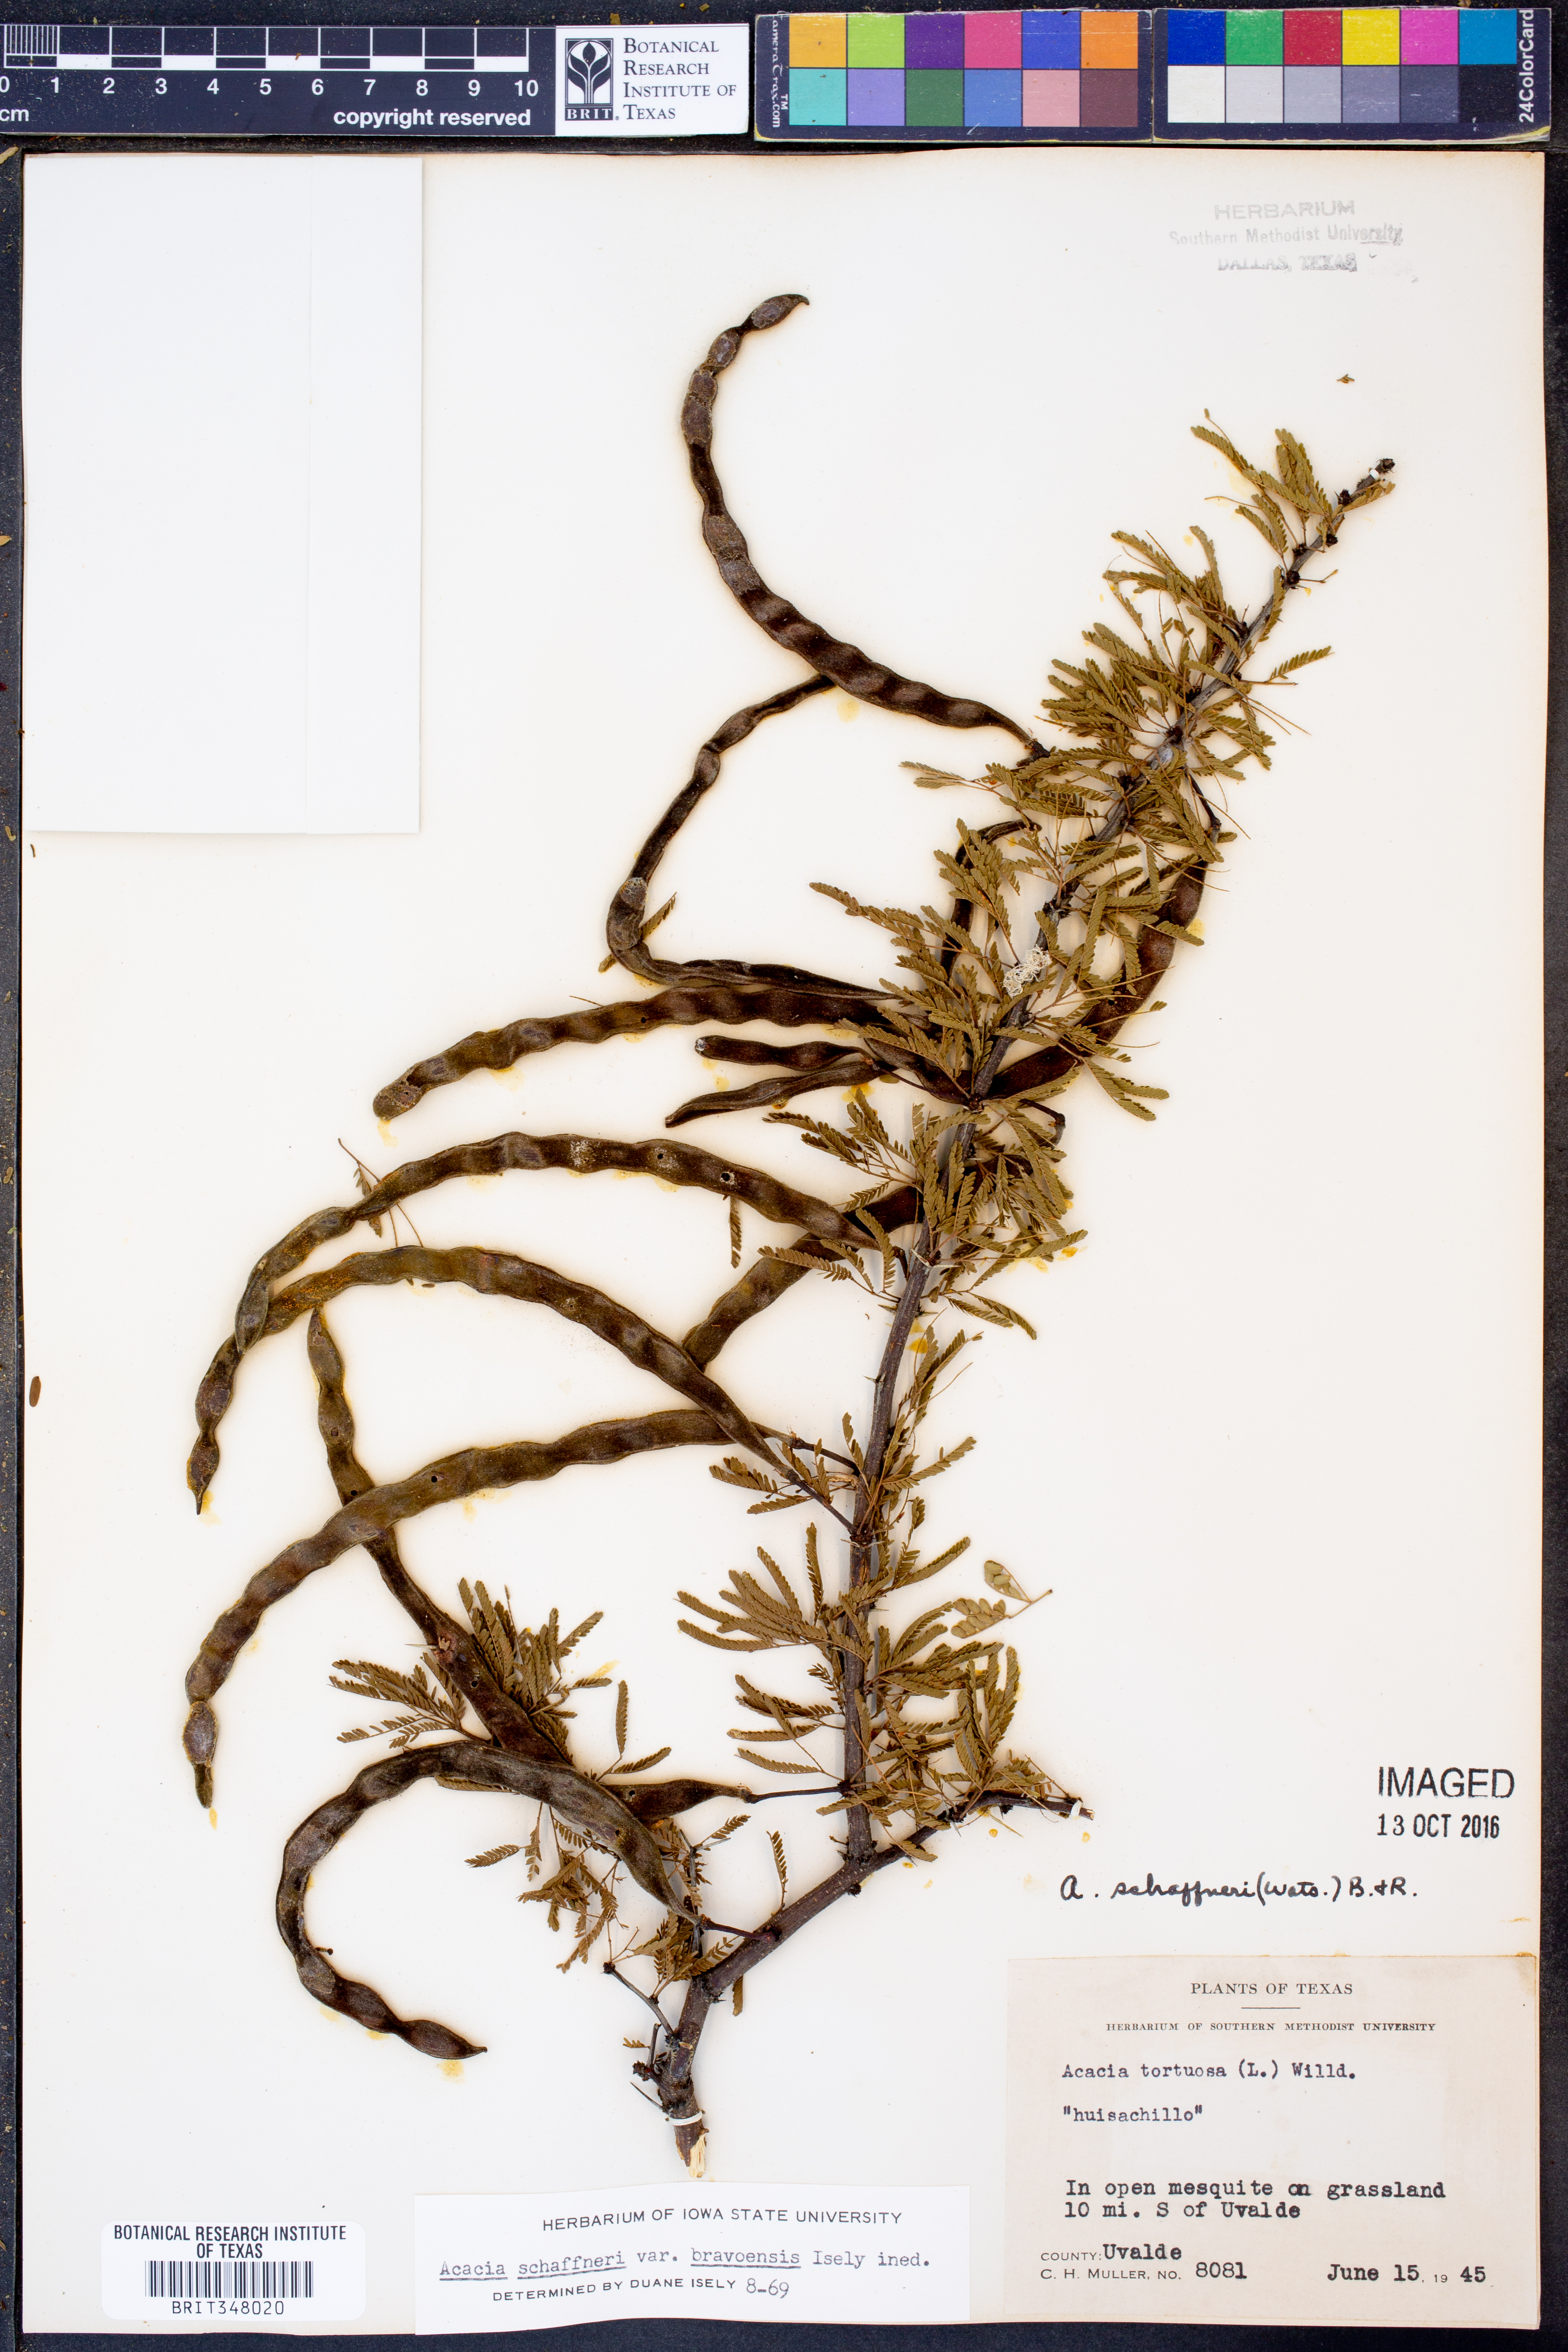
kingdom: Plantae
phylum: Tracheophyta
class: Magnoliopsida
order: Fabales
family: Fabaceae
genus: Vachellia
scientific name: Vachellia bravoensis
